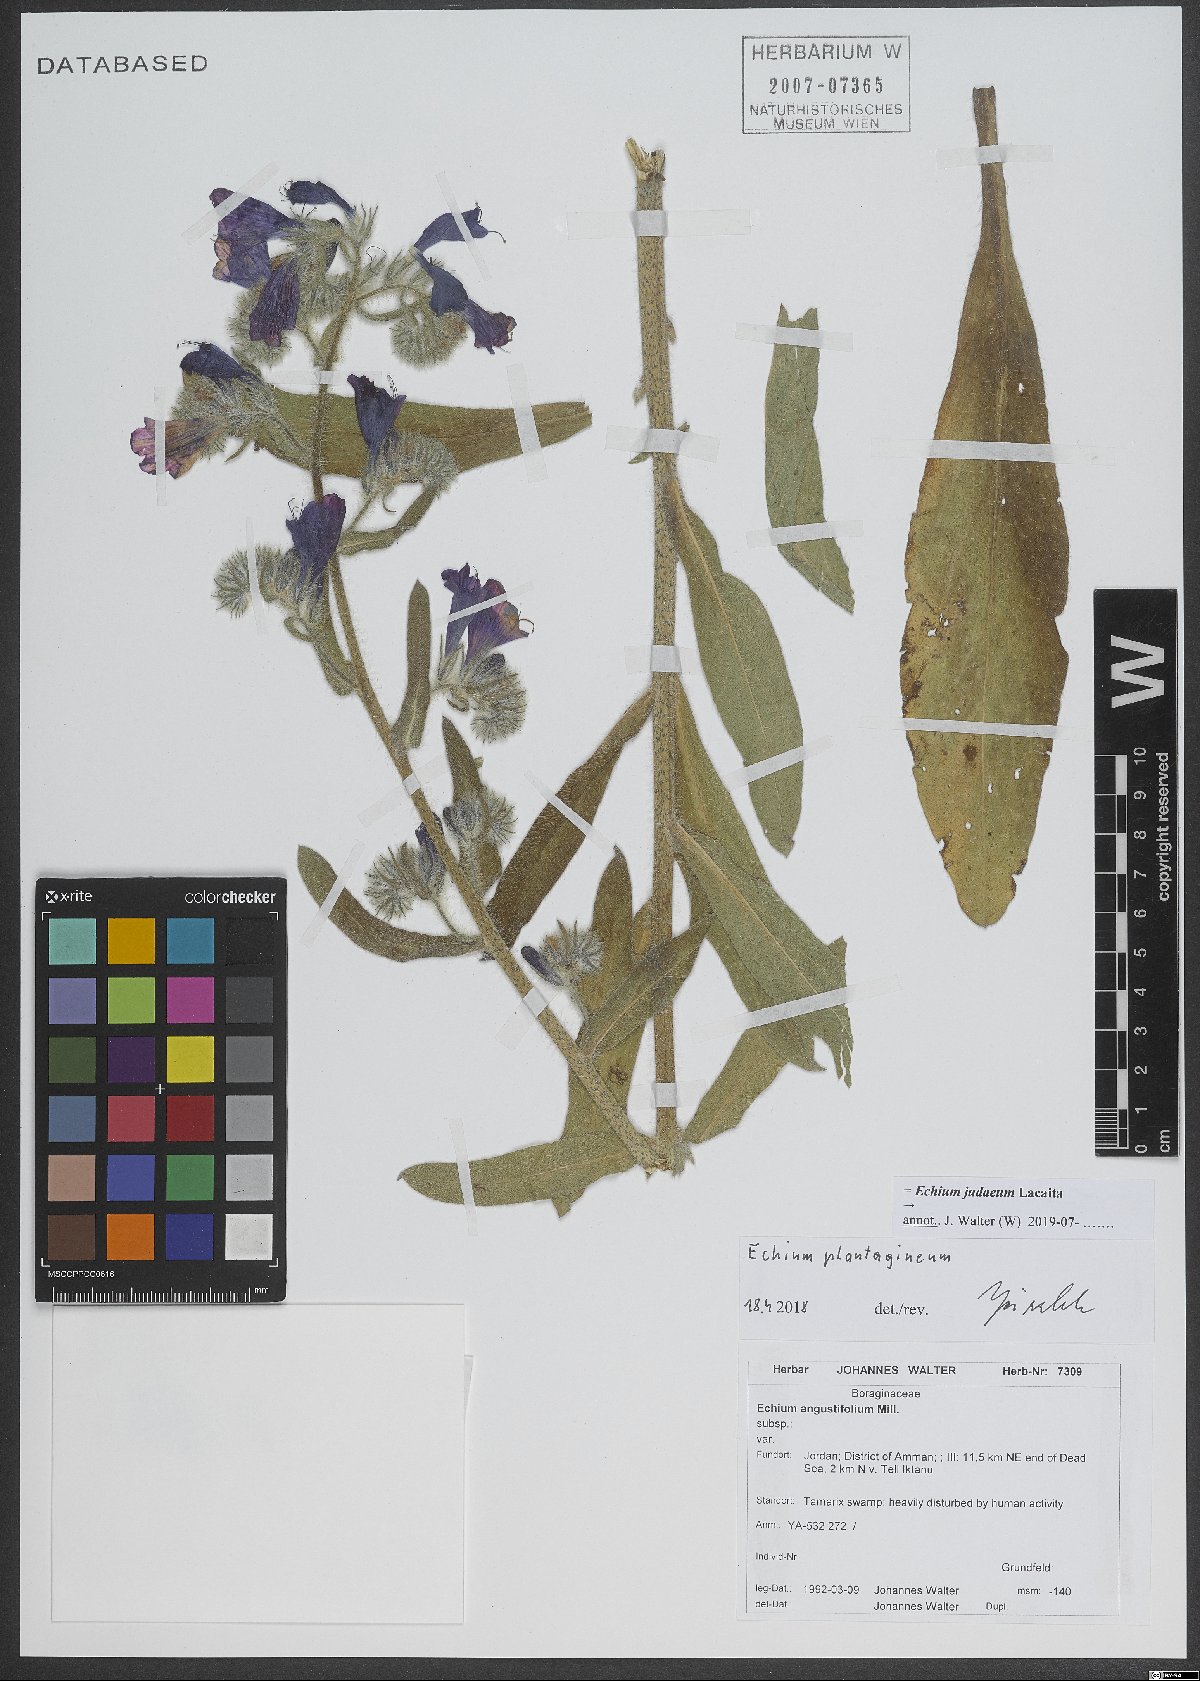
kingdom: Plantae
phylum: Tracheophyta
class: Magnoliopsida
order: Boraginales
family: Boraginaceae
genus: Echium
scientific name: Echium judaeum
